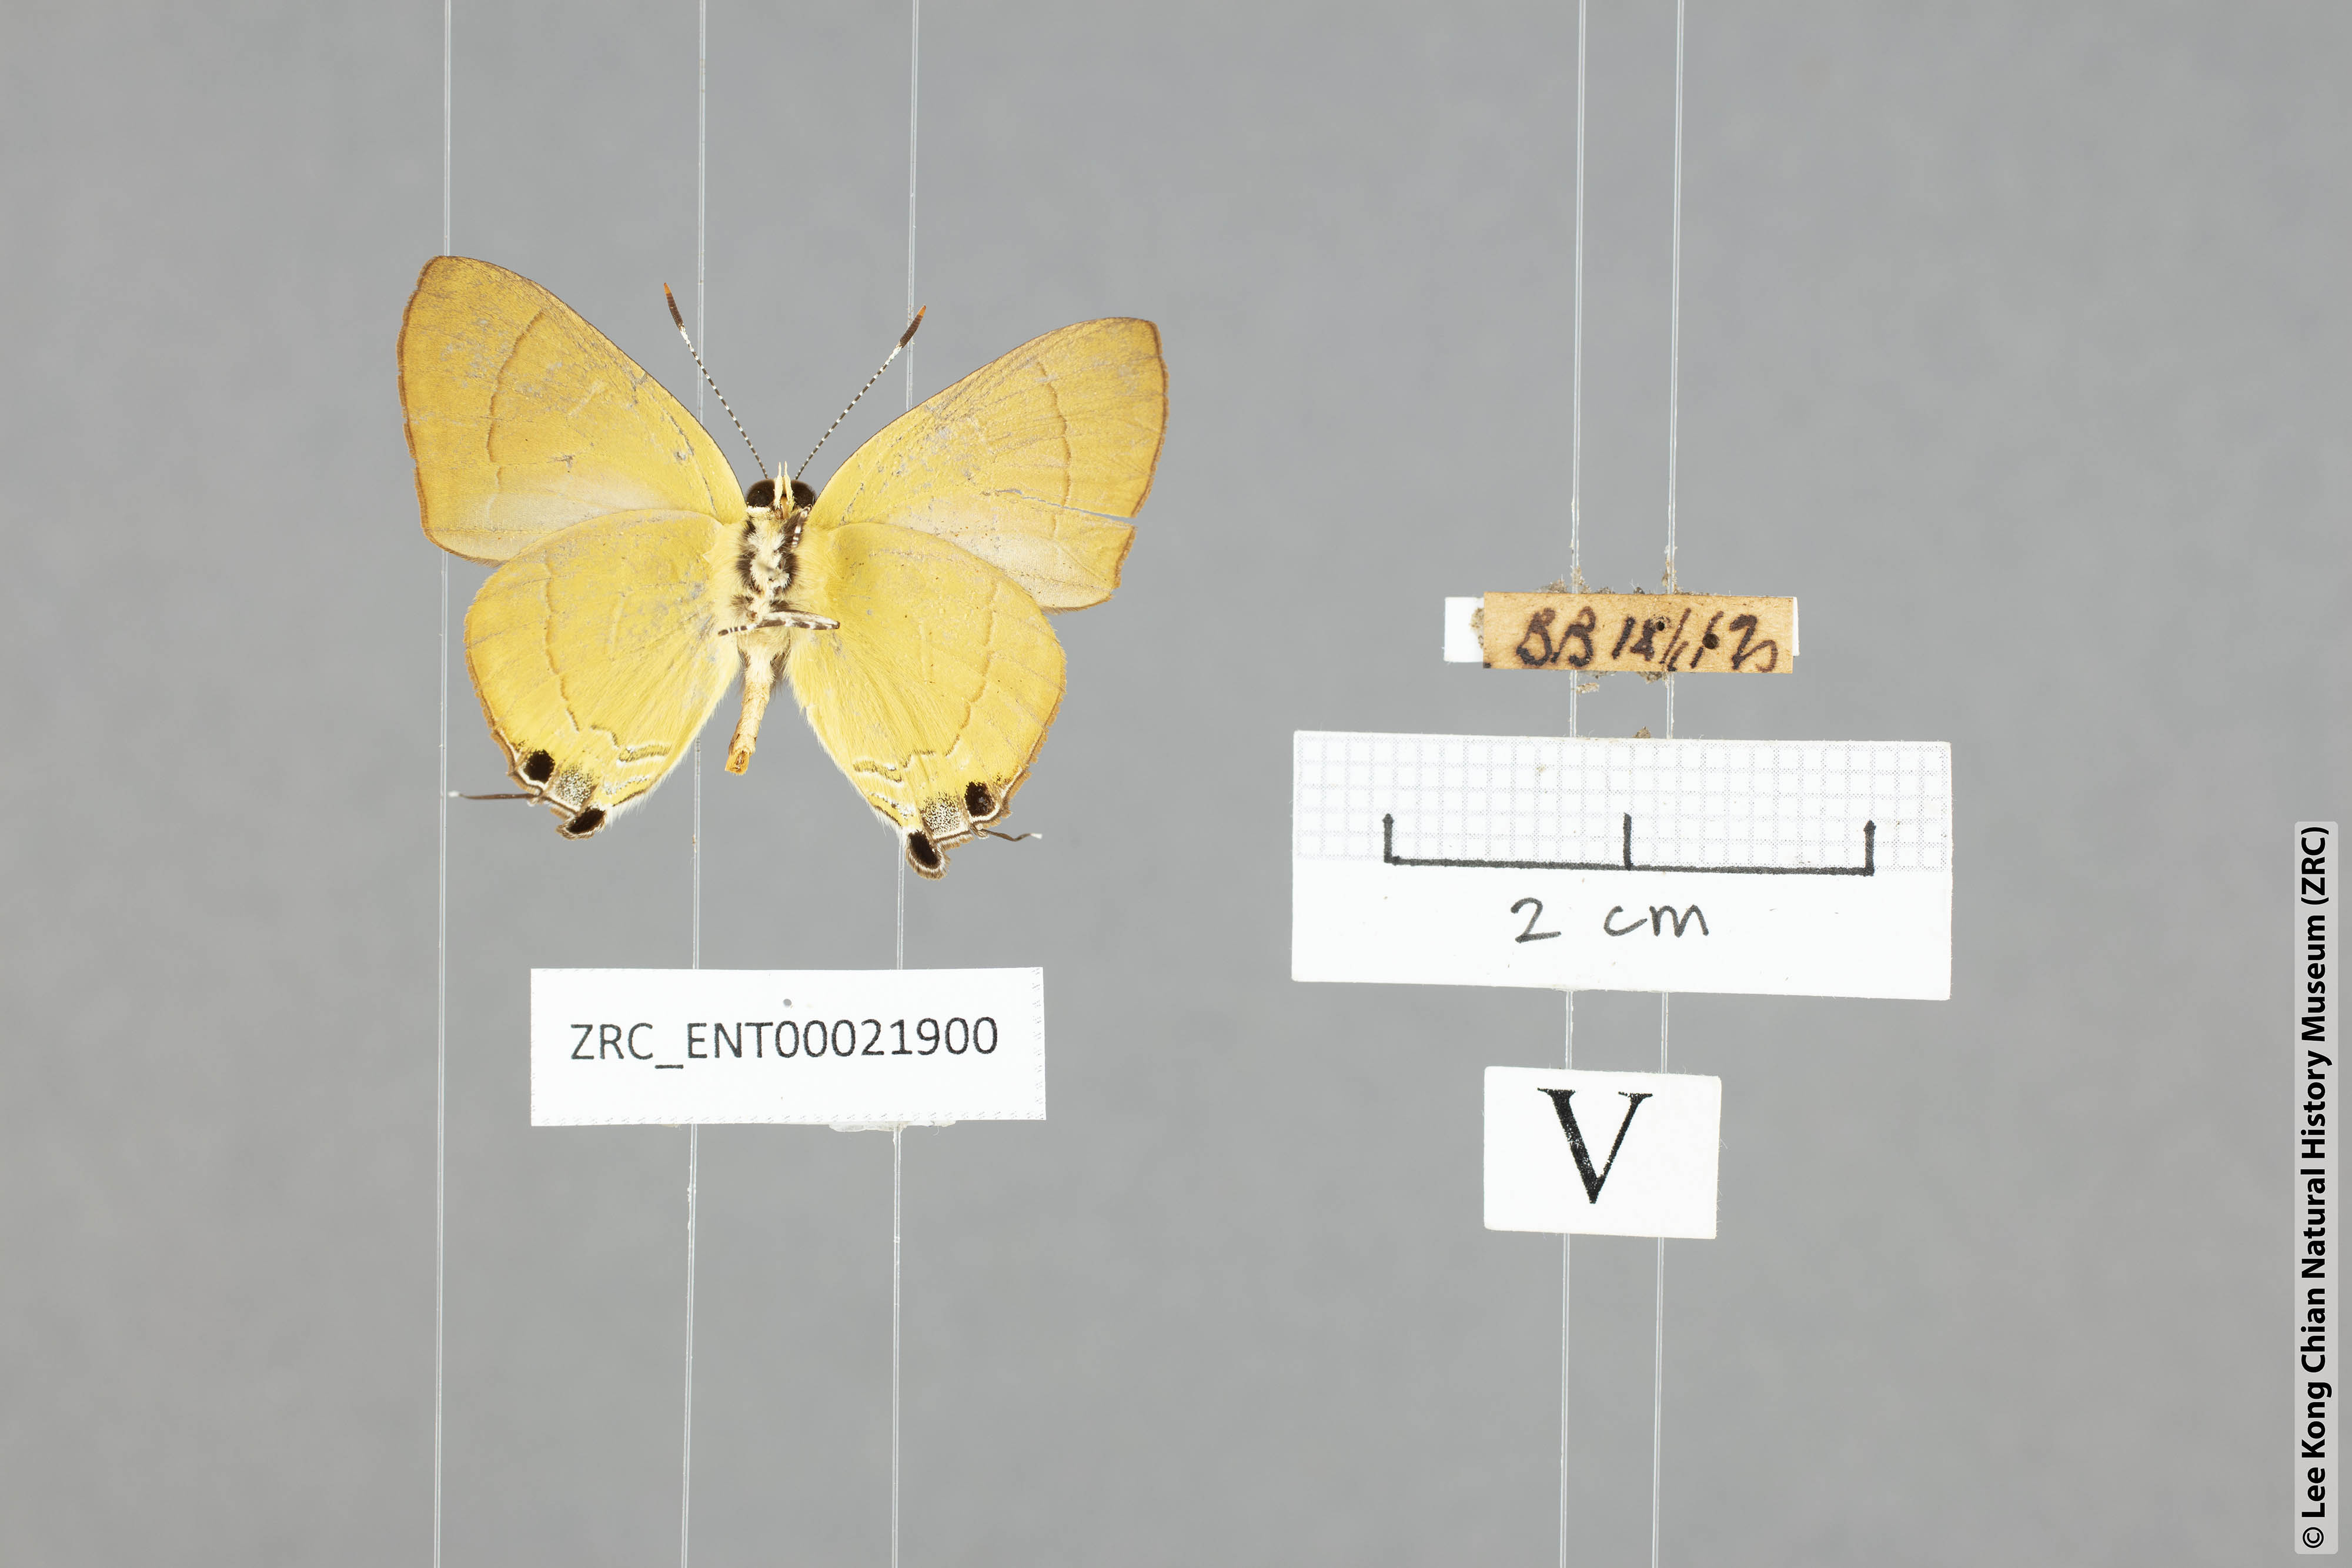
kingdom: Animalia
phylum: Arthropoda
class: Insecta
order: Lepidoptera
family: Lycaenidae
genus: Rapala
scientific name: Rapala suffusa
